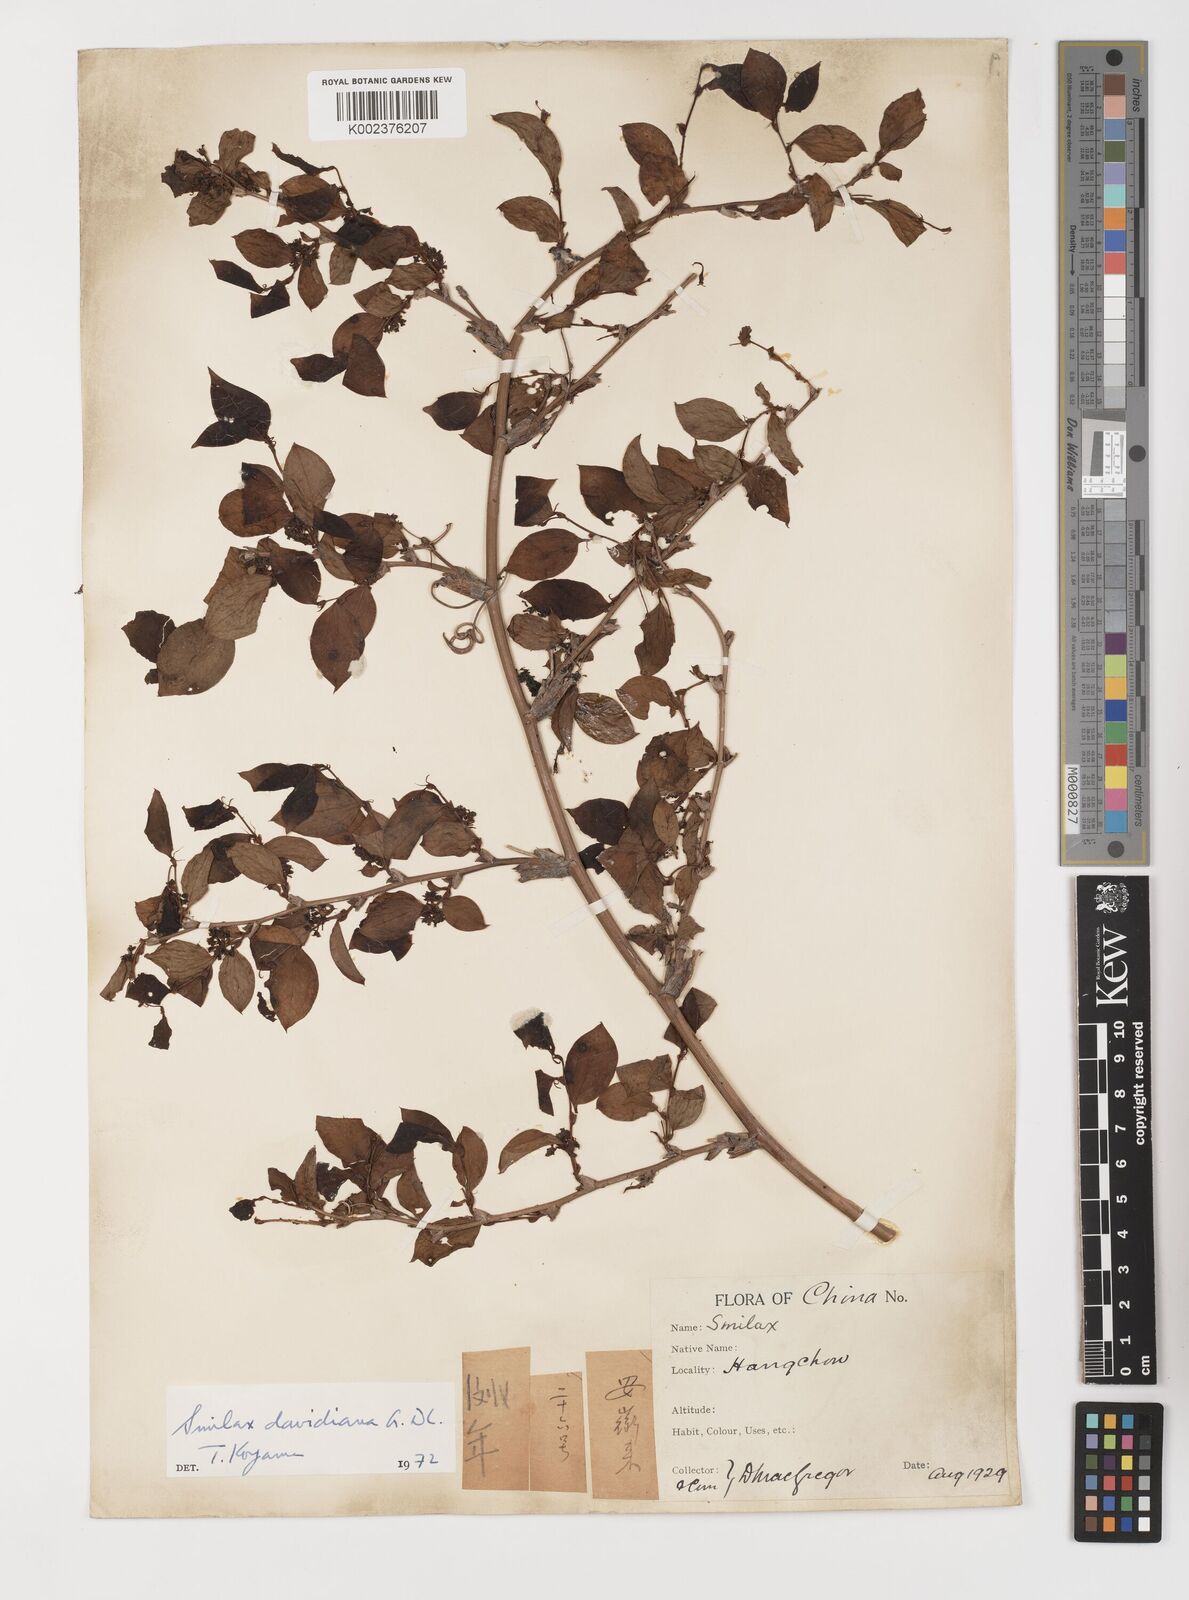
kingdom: Plantae
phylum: Tracheophyta
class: Liliopsida
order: Liliales
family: Smilacaceae
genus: Smilax
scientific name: Smilax davidiana
